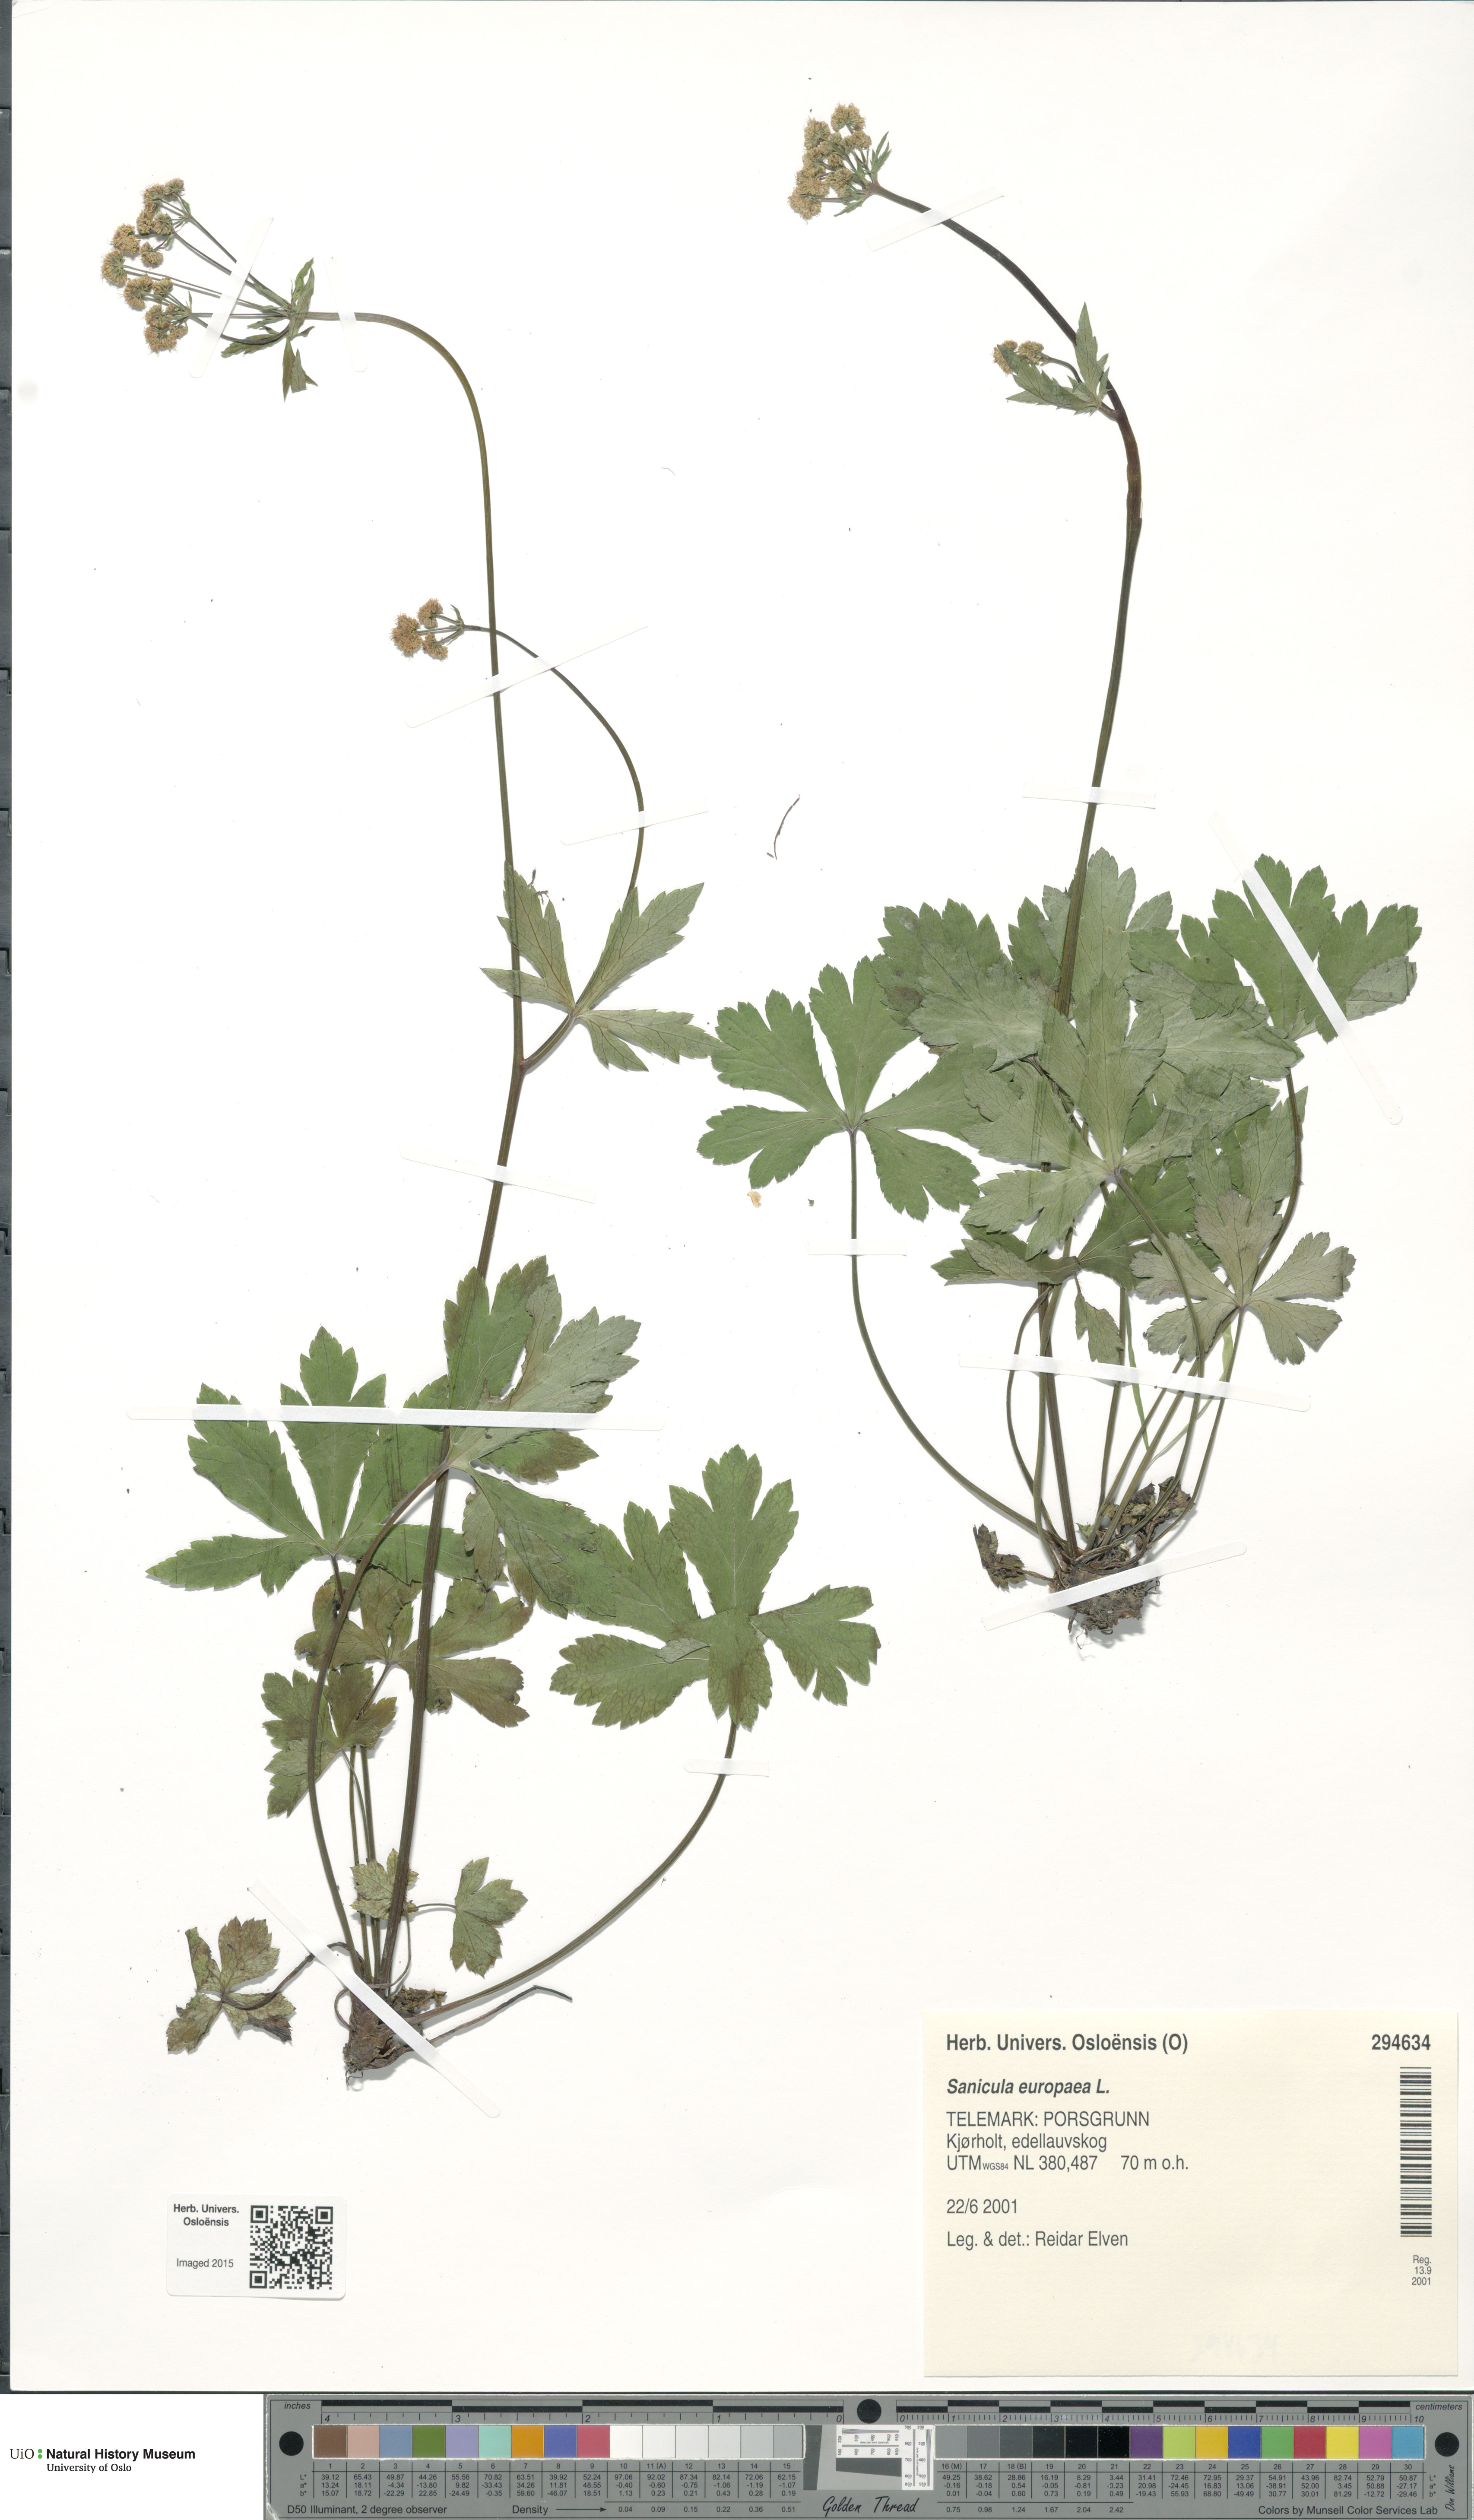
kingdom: Plantae
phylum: Tracheophyta
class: Magnoliopsida
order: Apiales
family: Apiaceae
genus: Sanicula
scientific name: Sanicula europaea
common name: Sanicle
